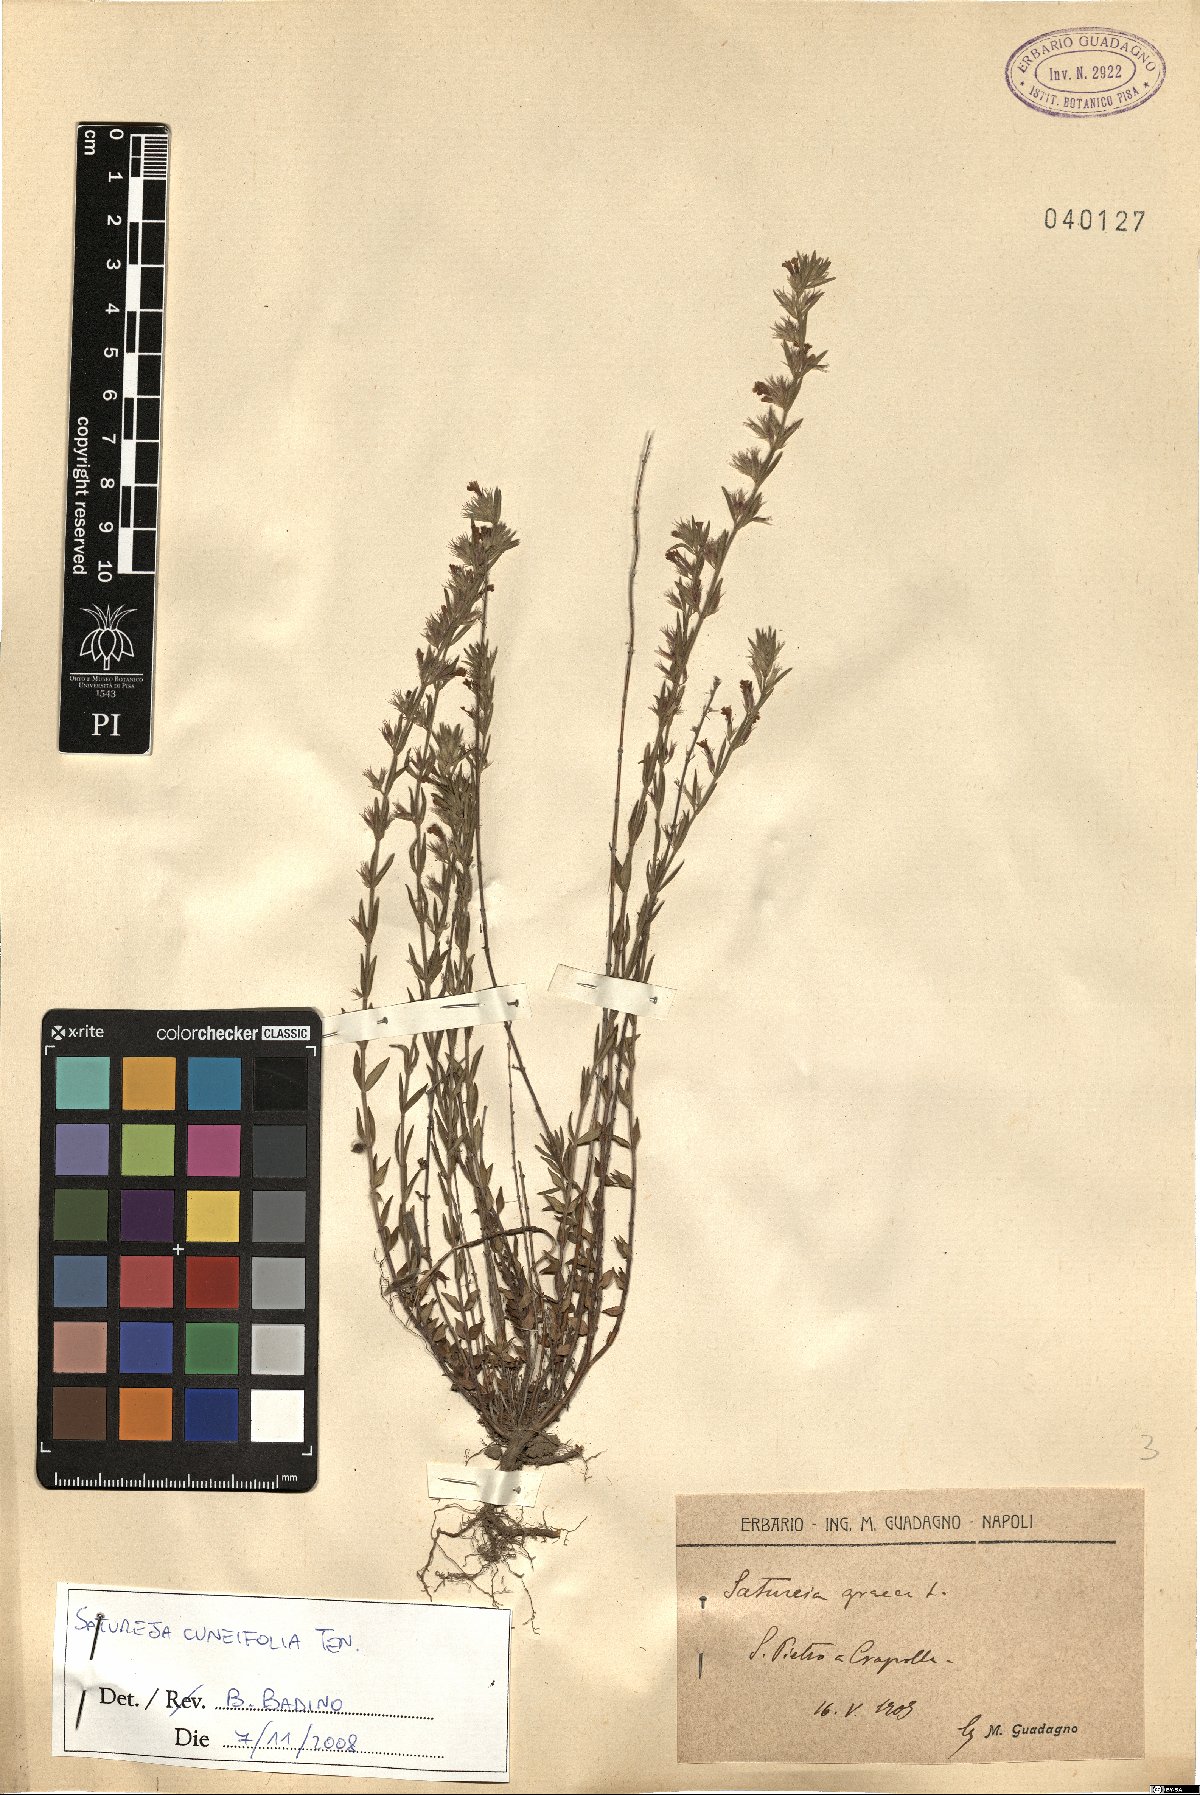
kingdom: Plantae
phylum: Tracheophyta
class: Magnoliopsida
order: Lamiales
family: Lamiaceae
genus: Satureja
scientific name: Satureja cuneifolia
